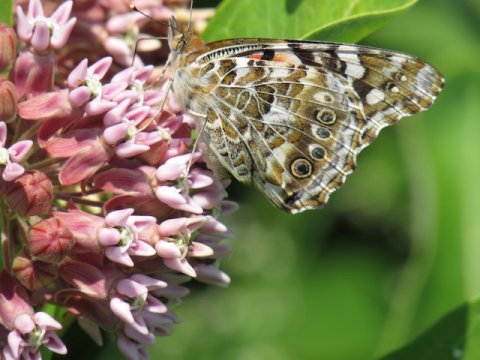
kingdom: Animalia
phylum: Arthropoda
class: Insecta
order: Lepidoptera
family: Nymphalidae
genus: Vanessa
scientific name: Vanessa cardui
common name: Painted Lady
